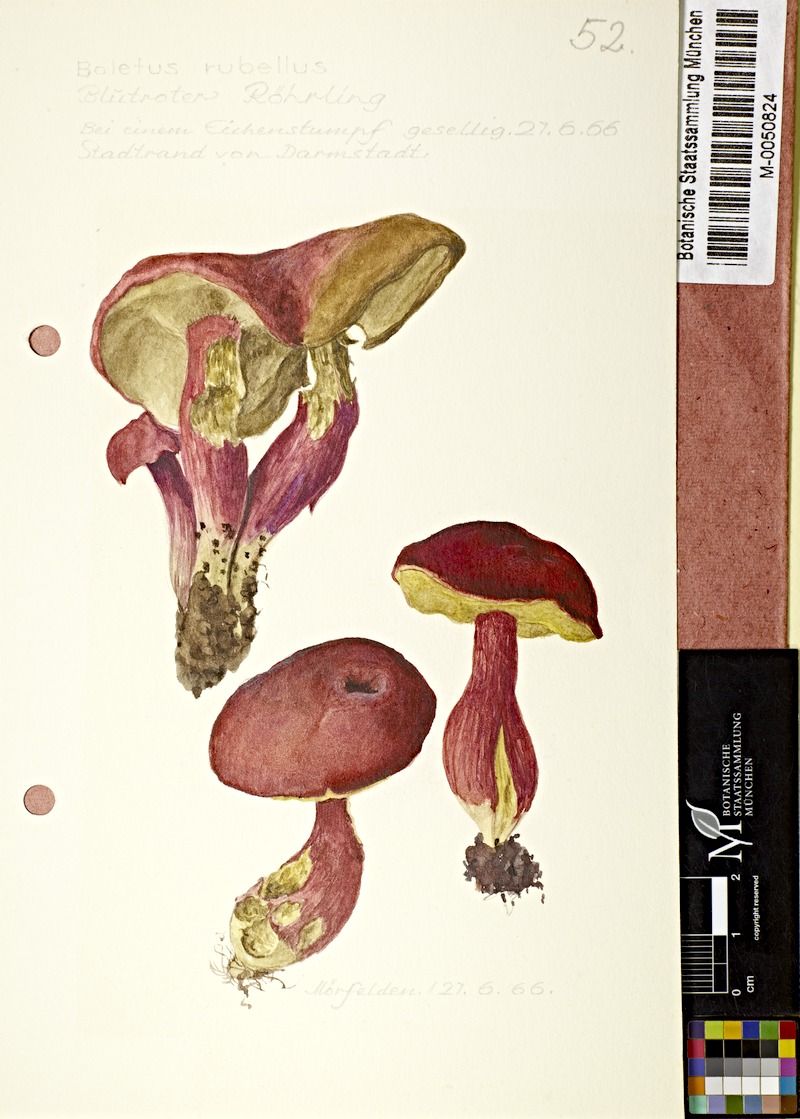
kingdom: Fungi
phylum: Basidiomycota
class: Agaricomycetes
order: Boletales
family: Boletaceae
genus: Hortiboletus
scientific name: Hortiboletus rubellus
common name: Ruby bolete
